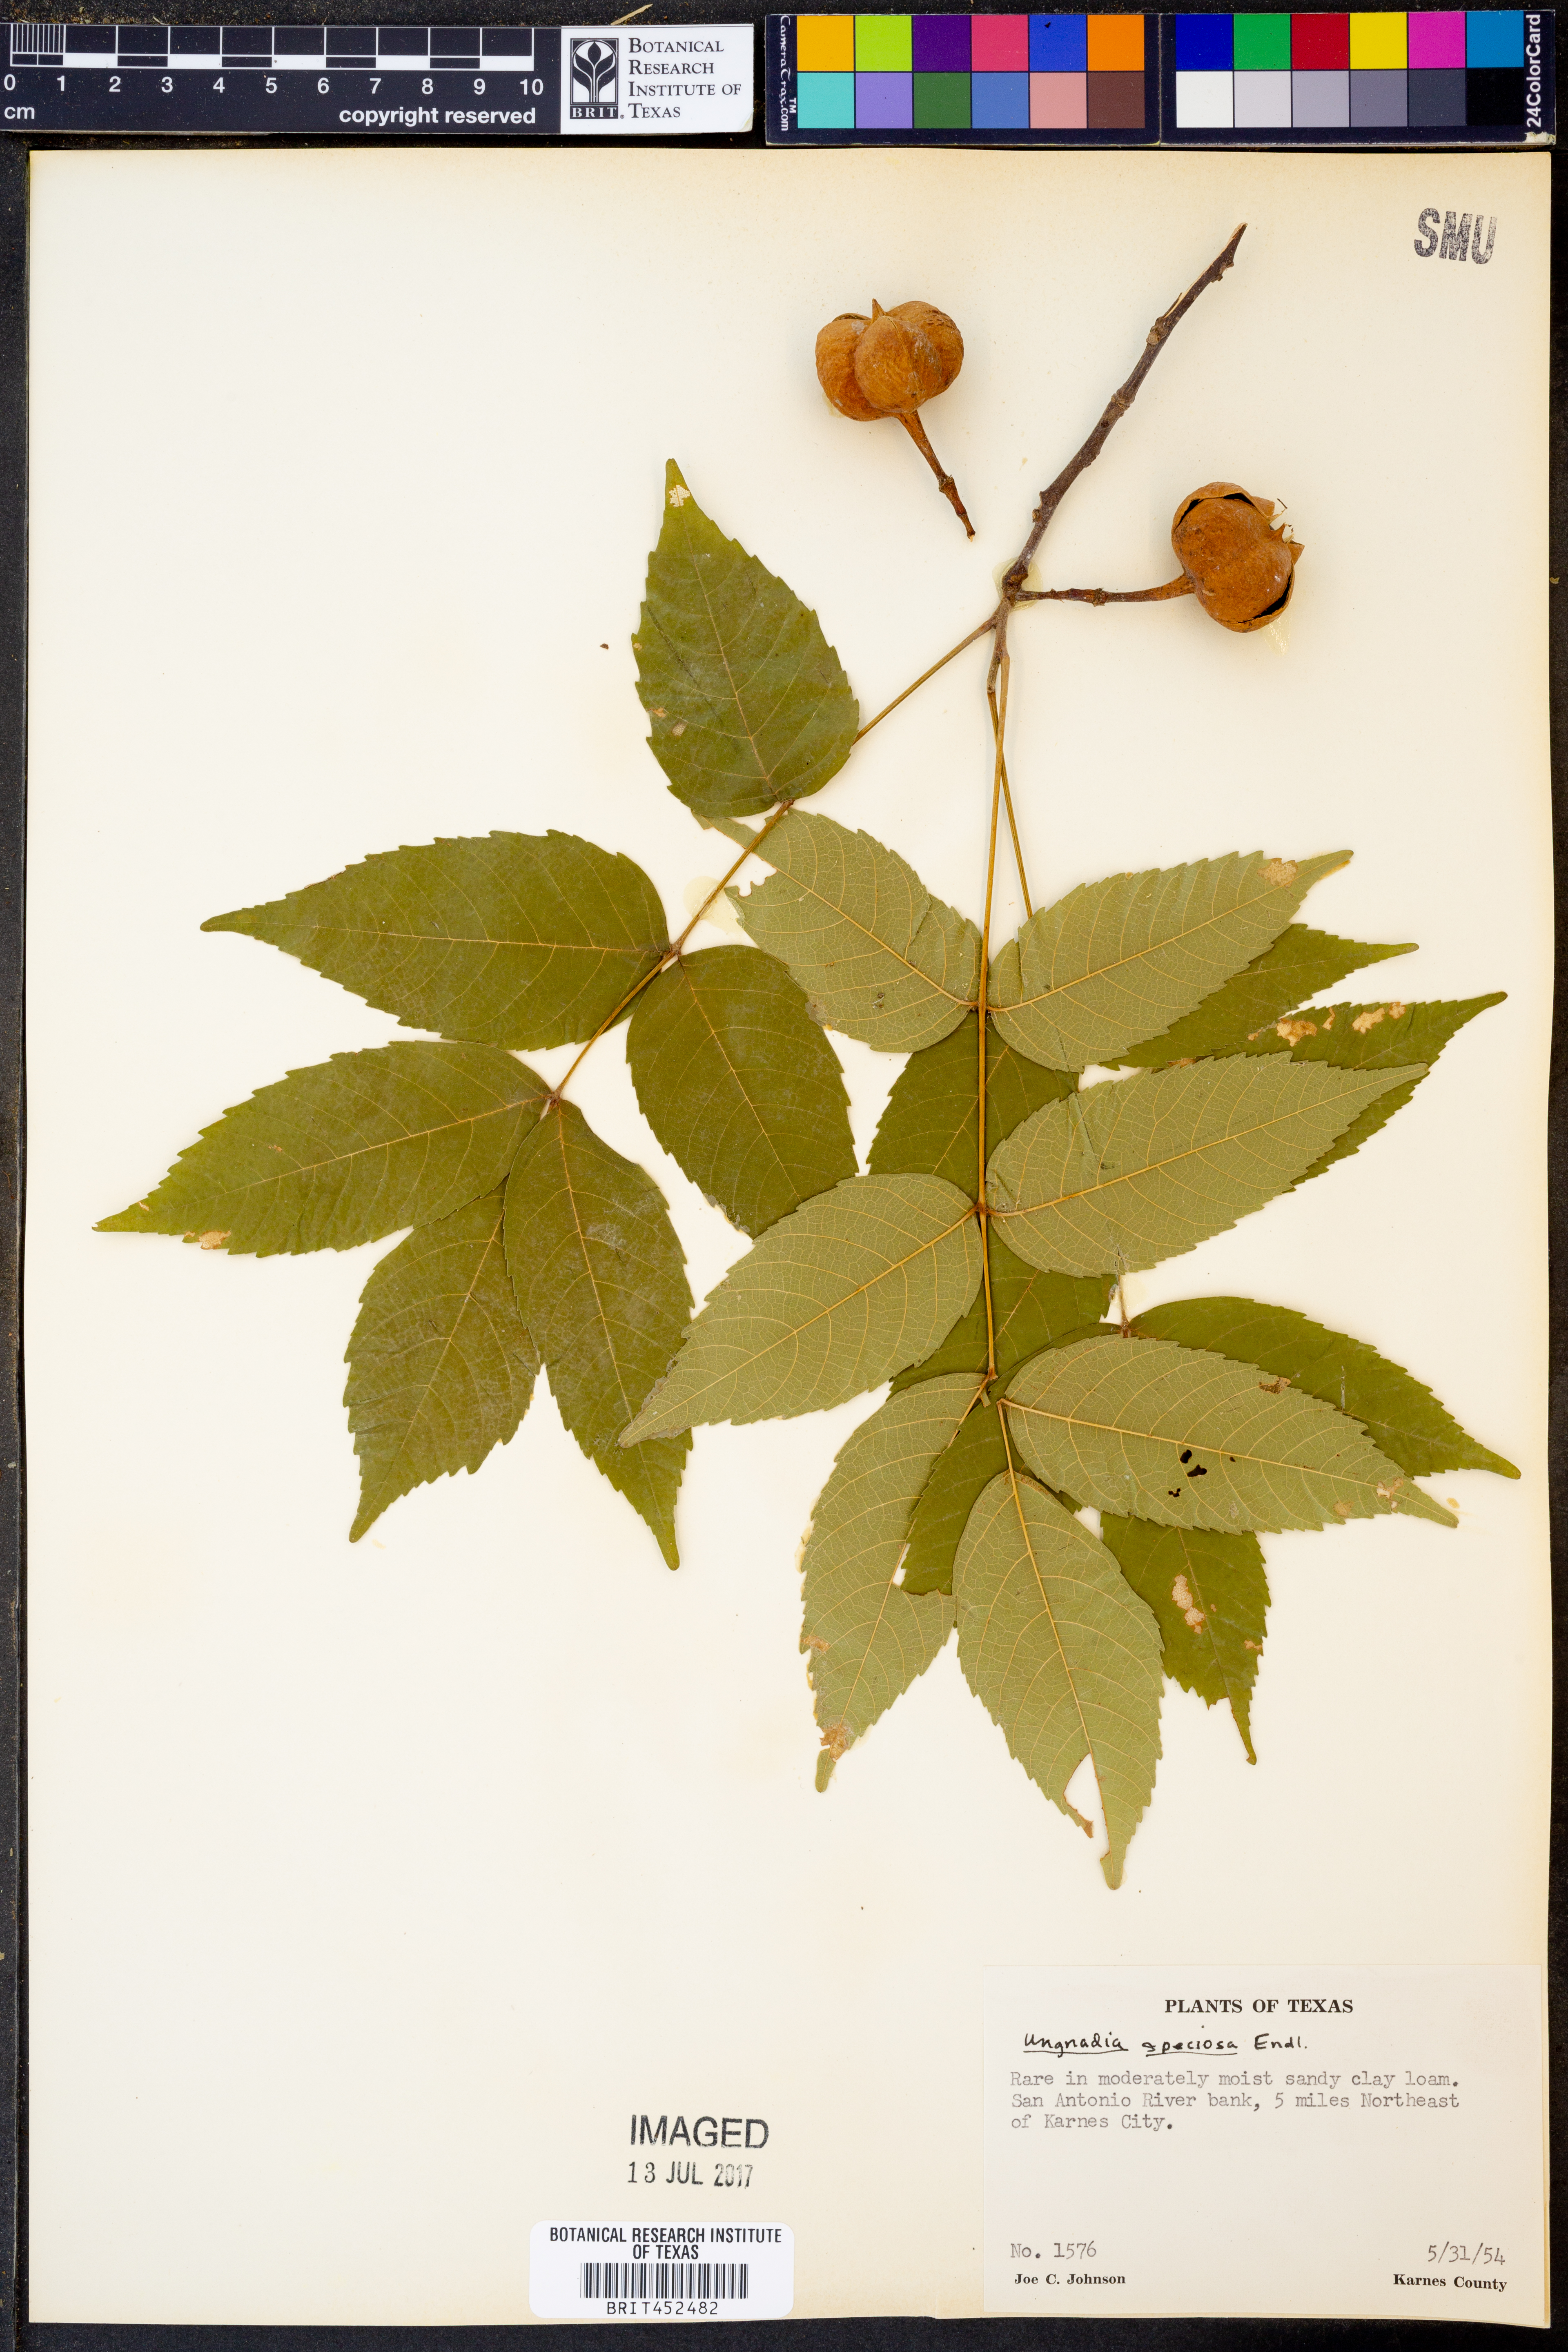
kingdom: Plantae
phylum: Tracheophyta
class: Magnoliopsida
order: Sapindales
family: Sapindaceae
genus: Ungnadia
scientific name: Ungnadia speciosa
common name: Texas-buckeye
